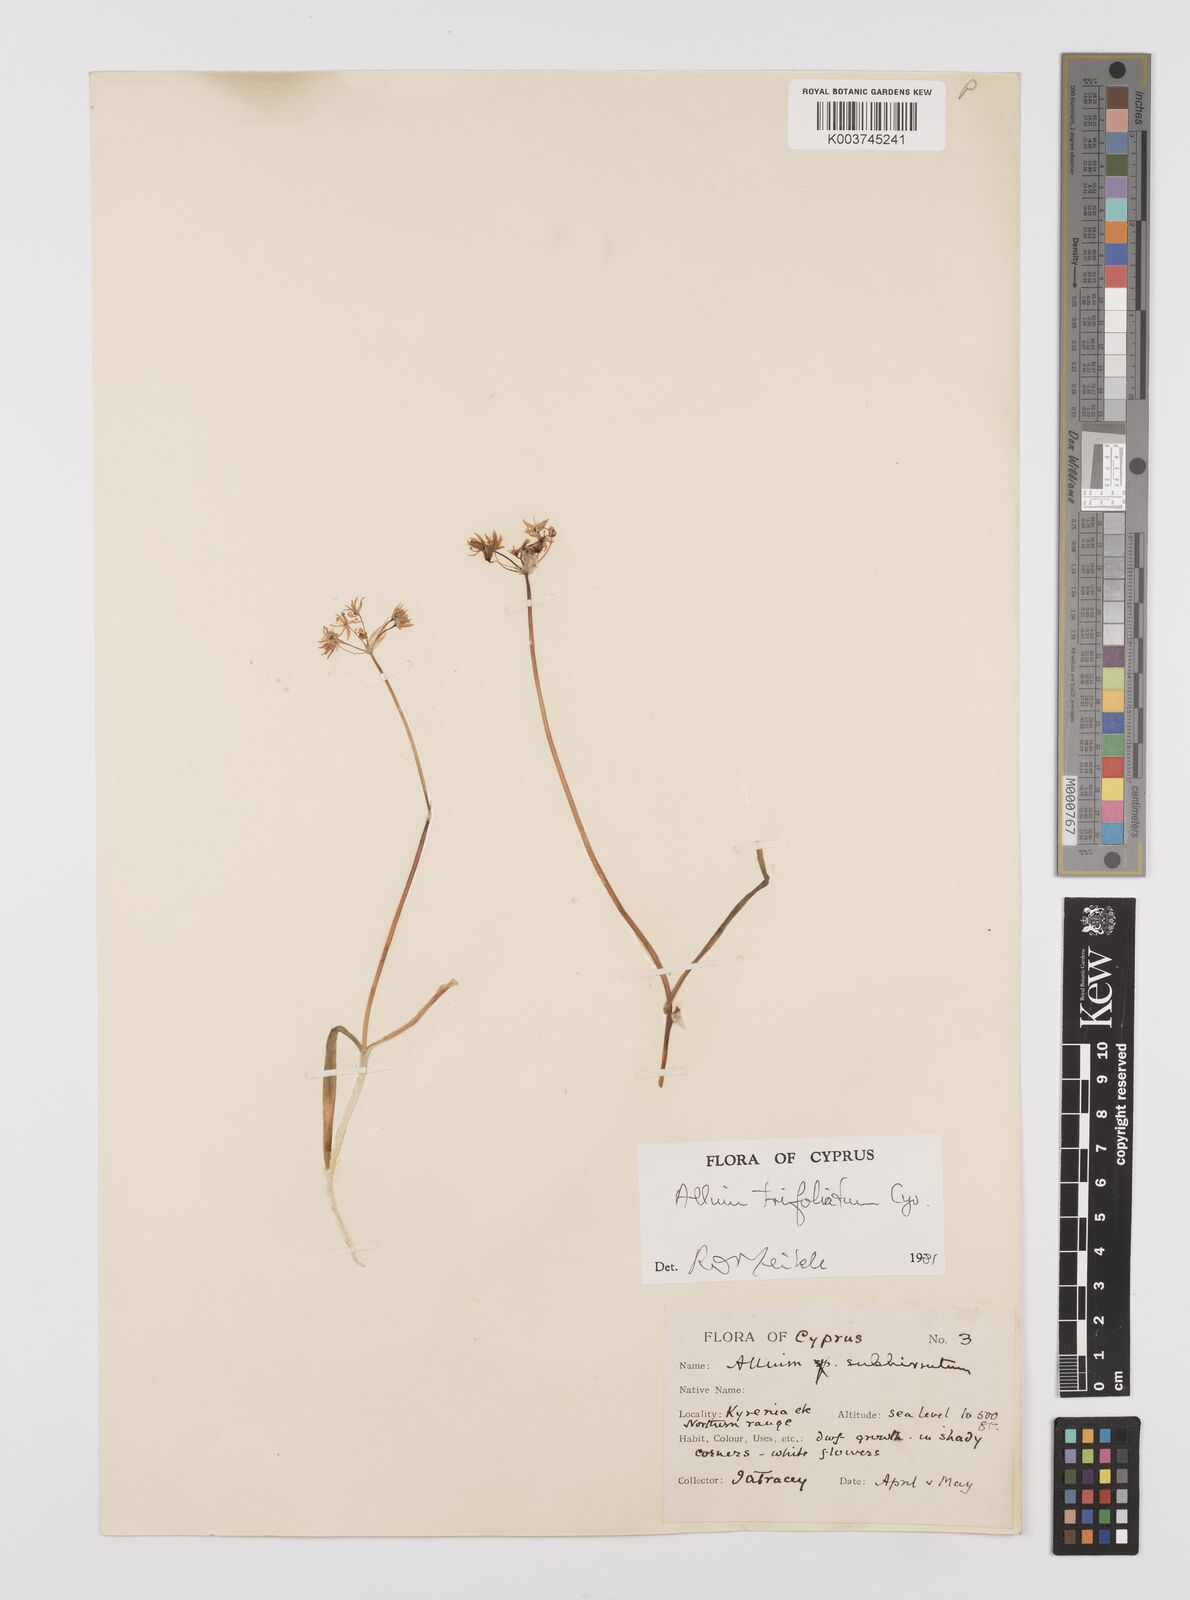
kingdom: Plantae
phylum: Tracheophyta
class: Liliopsida
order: Asparagales
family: Amaryllidaceae
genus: Allium
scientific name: Allium trifoliatum
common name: Pink garlic
